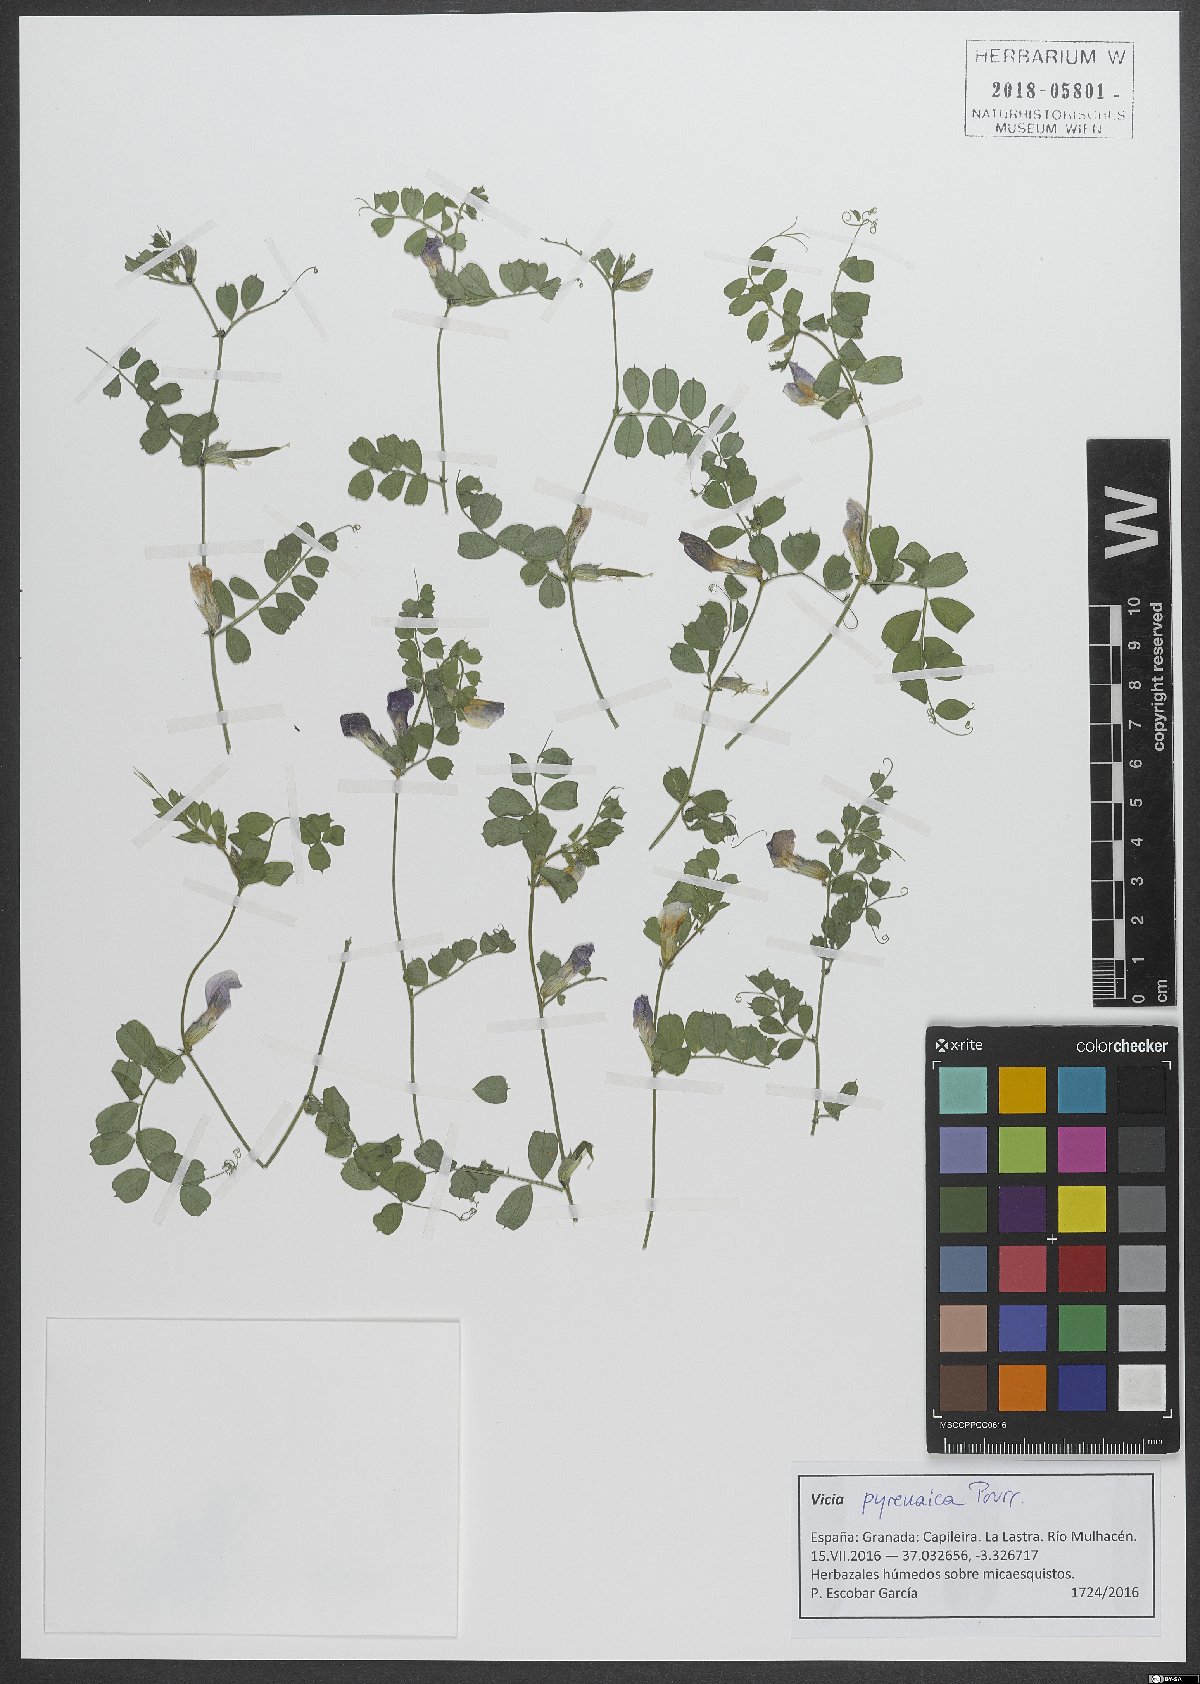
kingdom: Plantae
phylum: Tracheophyta
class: Magnoliopsida
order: Fabales
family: Fabaceae
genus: Vicia
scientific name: Vicia pyrenaica
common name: Pyrenean vetch
